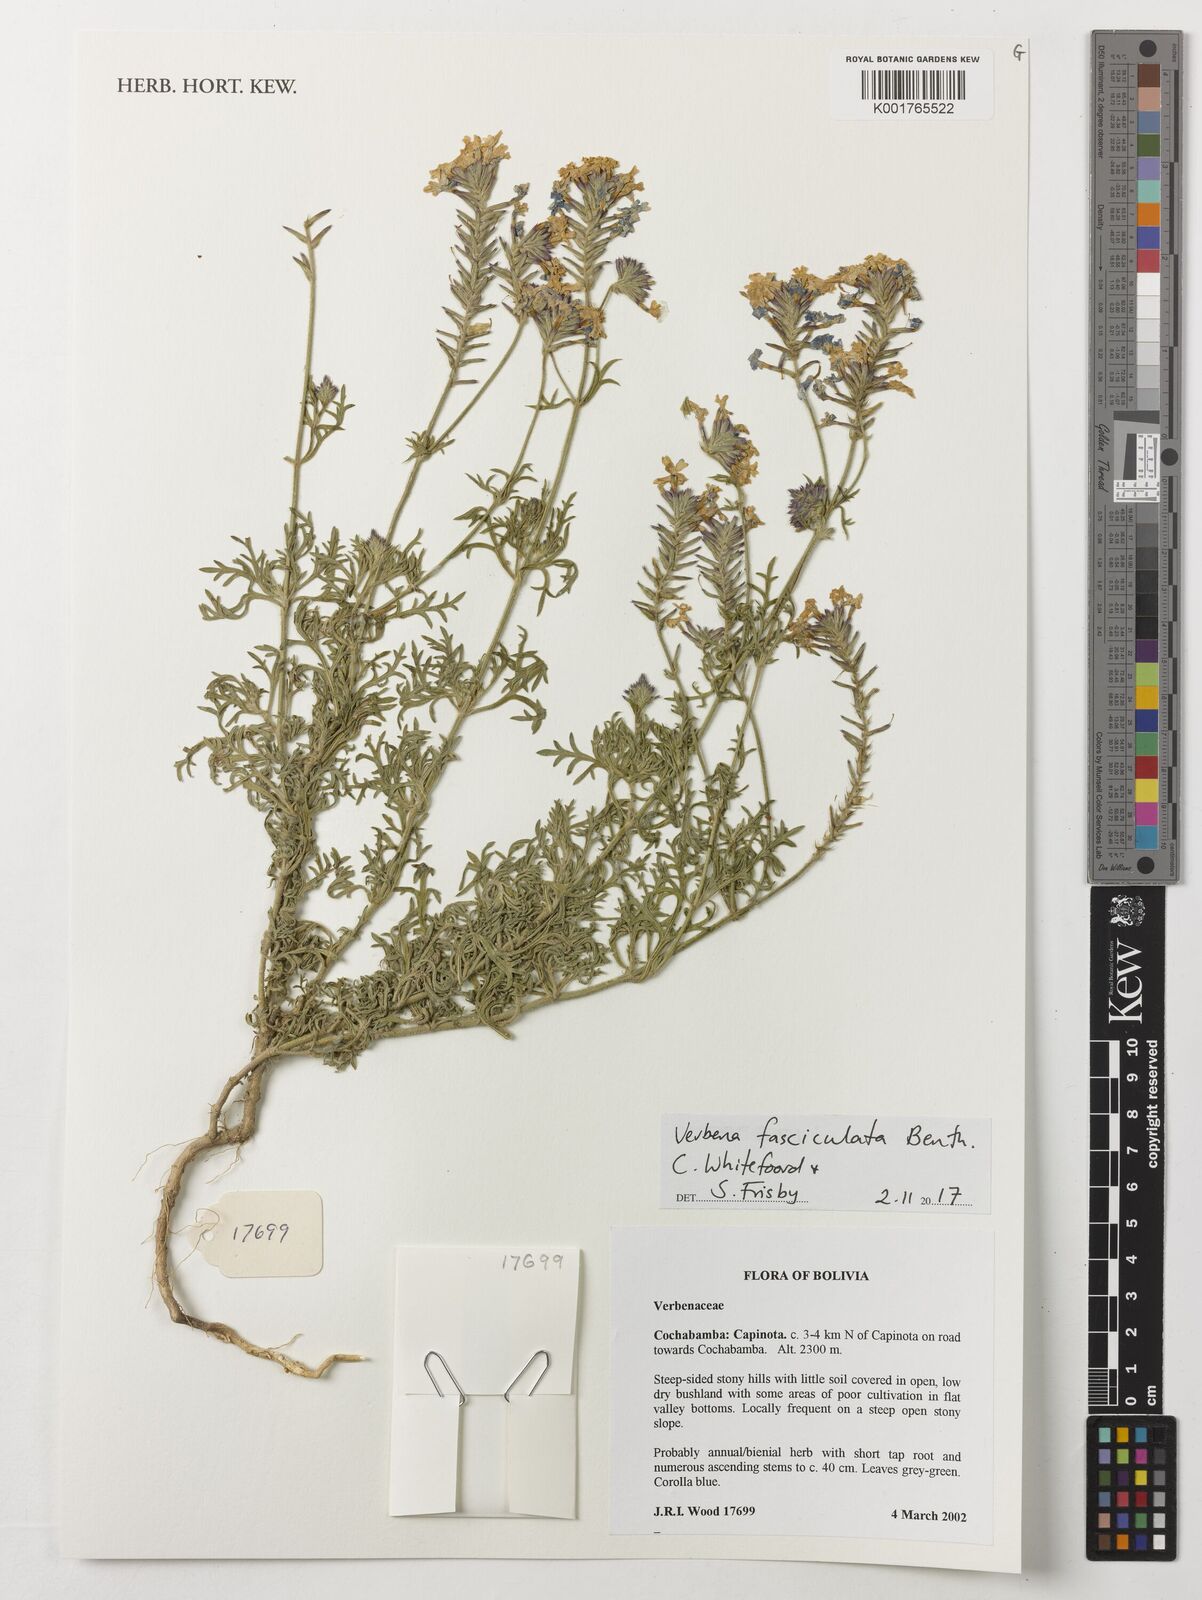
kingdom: Plantae
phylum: Tracheophyta
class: Magnoliopsida
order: Lamiales
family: Verbenaceae
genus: Junellia
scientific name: Junellia fasciculata
